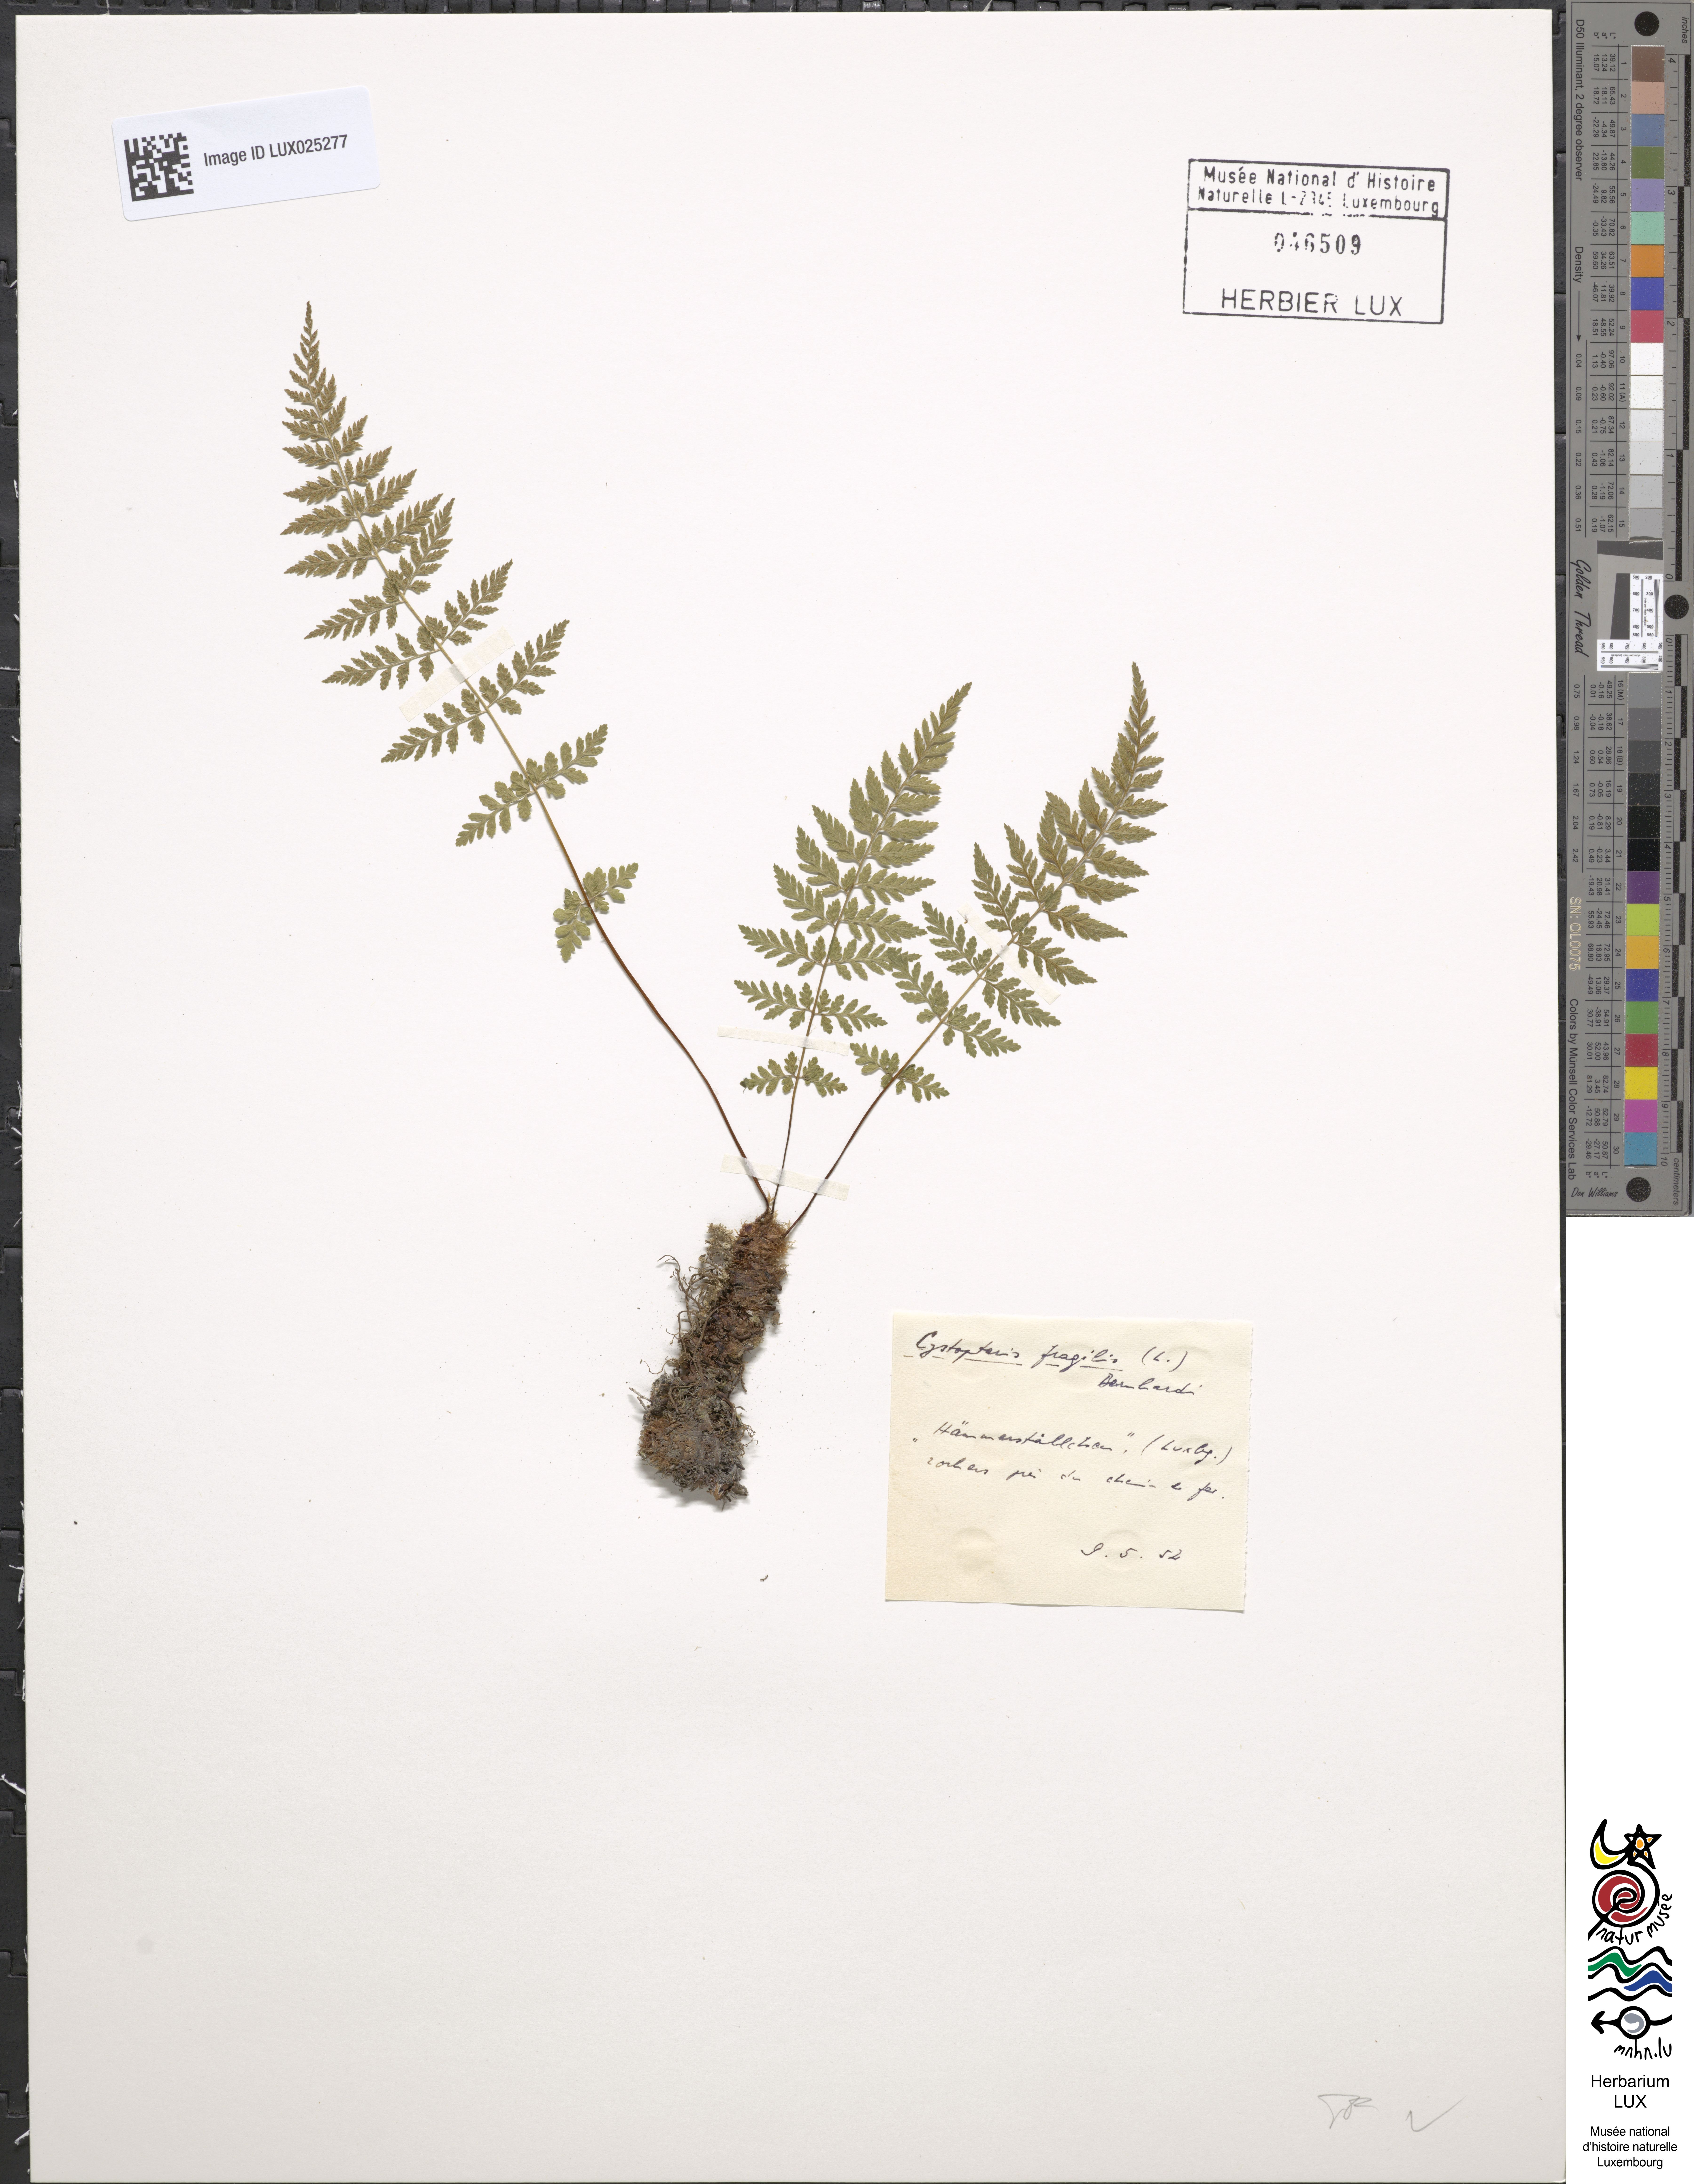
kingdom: Plantae
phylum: Tracheophyta
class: Polypodiopsida
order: Polypodiales
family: Cystopteridaceae
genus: Cystopteris
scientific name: Cystopteris fragilis
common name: Brittle bladder fern
